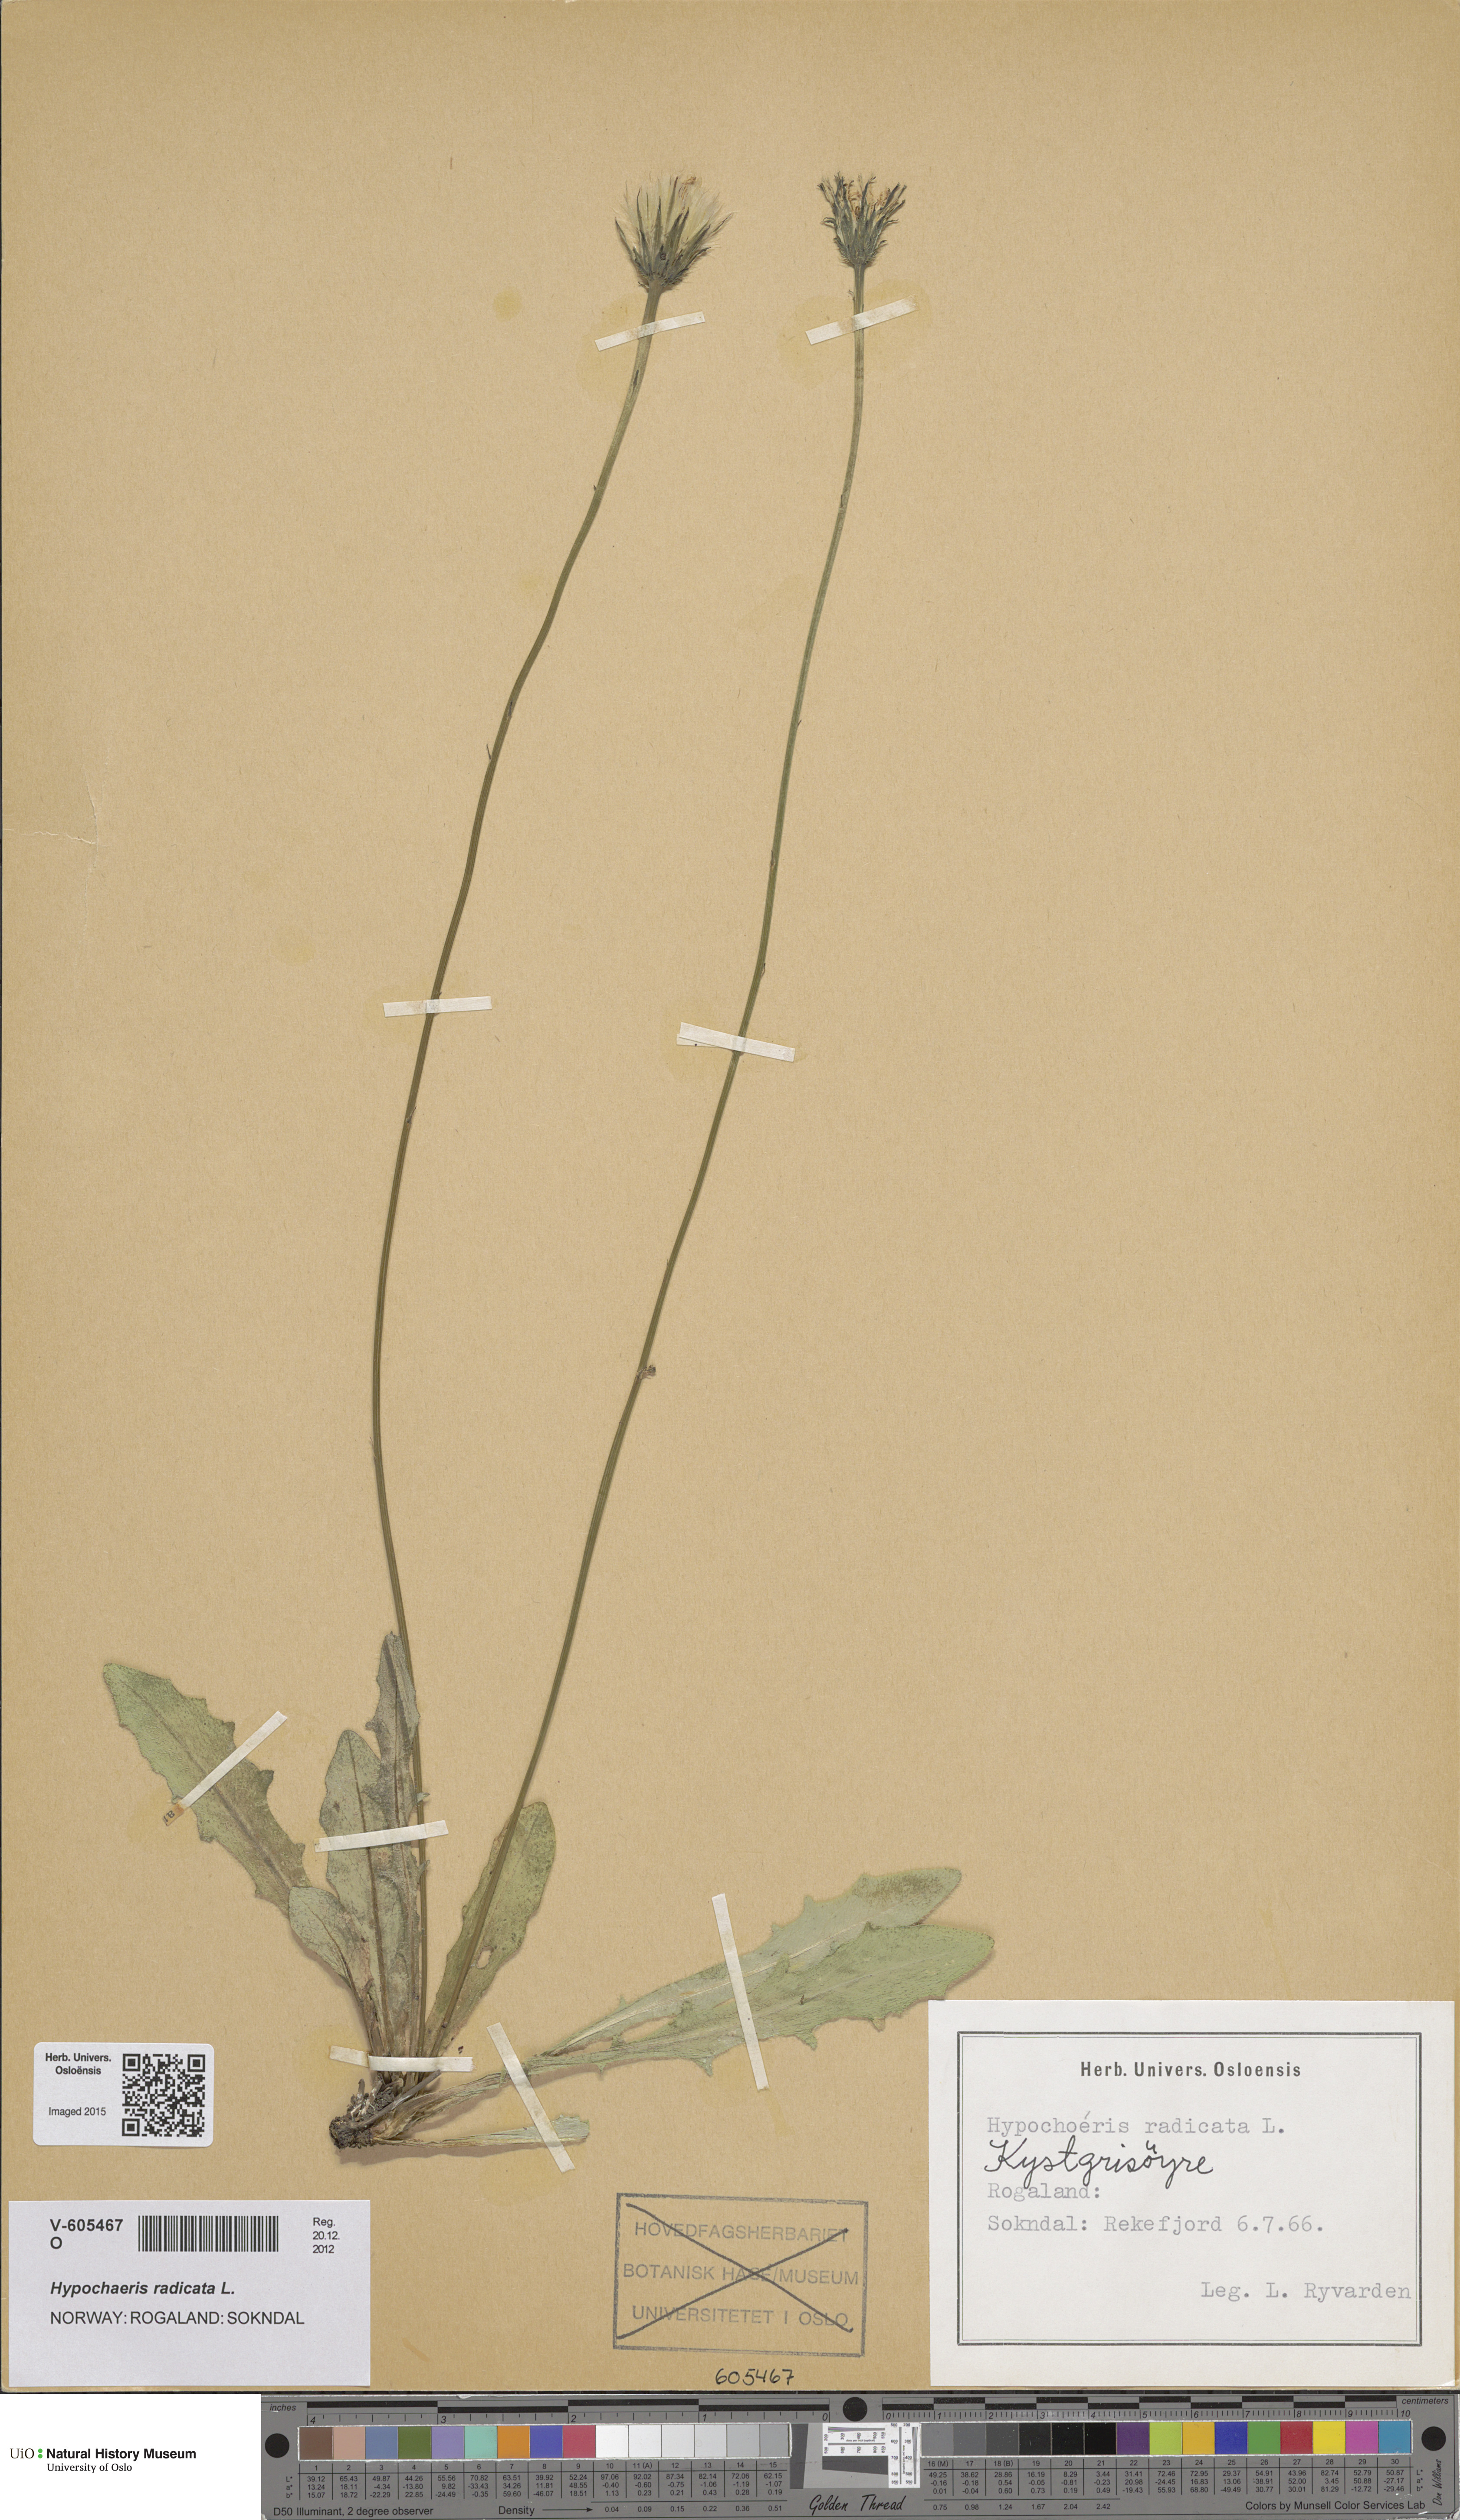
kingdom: Plantae
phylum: Tracheophyta
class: Magnoliopsida
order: Asterales
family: Asteraceae
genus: Hypochaeris
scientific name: Hypochaeris radicata
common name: Flatweed
